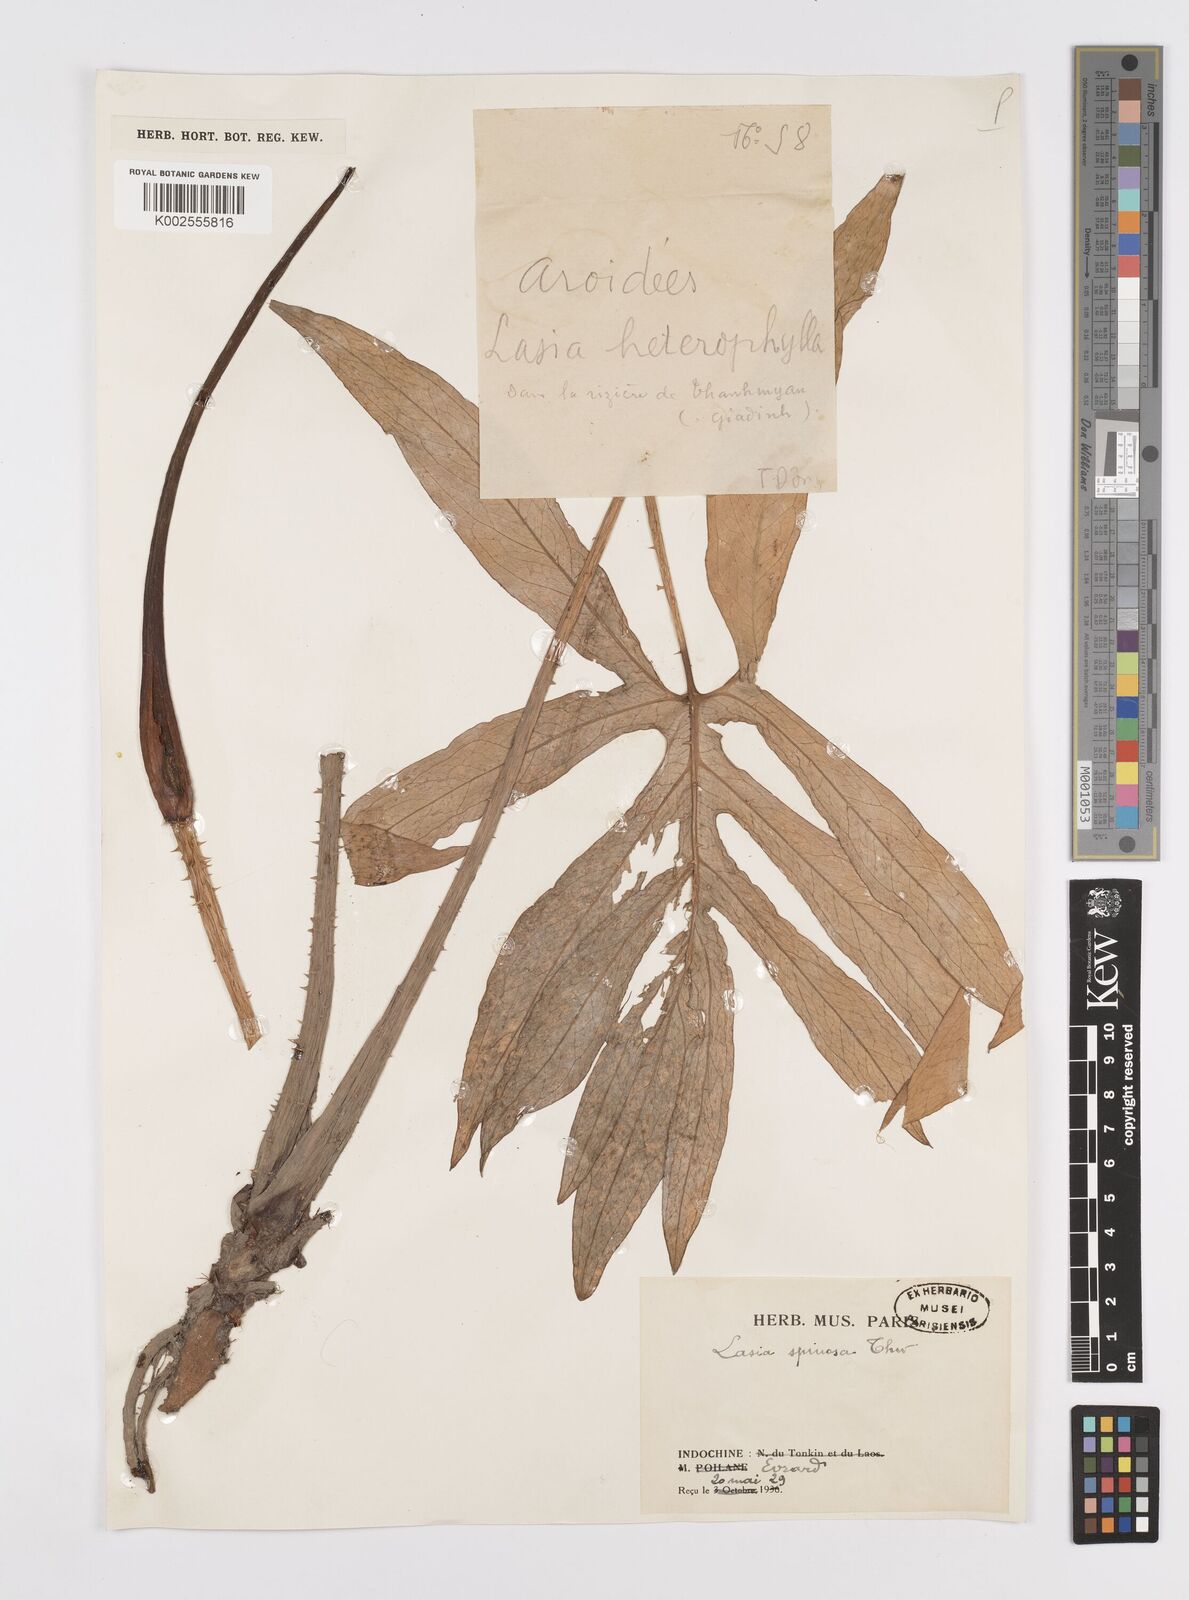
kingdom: Plantae
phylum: Tracheophyta
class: Liliopsida
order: Alismatales
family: Araceae
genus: Lasia
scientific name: Lasia spinosa
